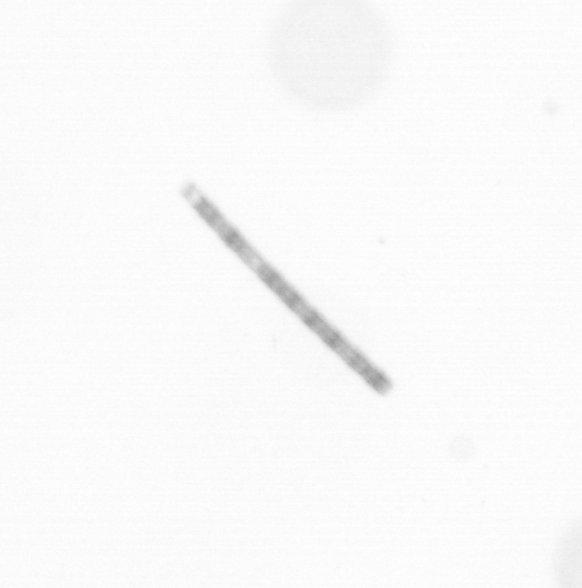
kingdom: Chromista
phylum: Ochrophyta
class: Bacillariophyceae
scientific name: Bacillariophyceae
